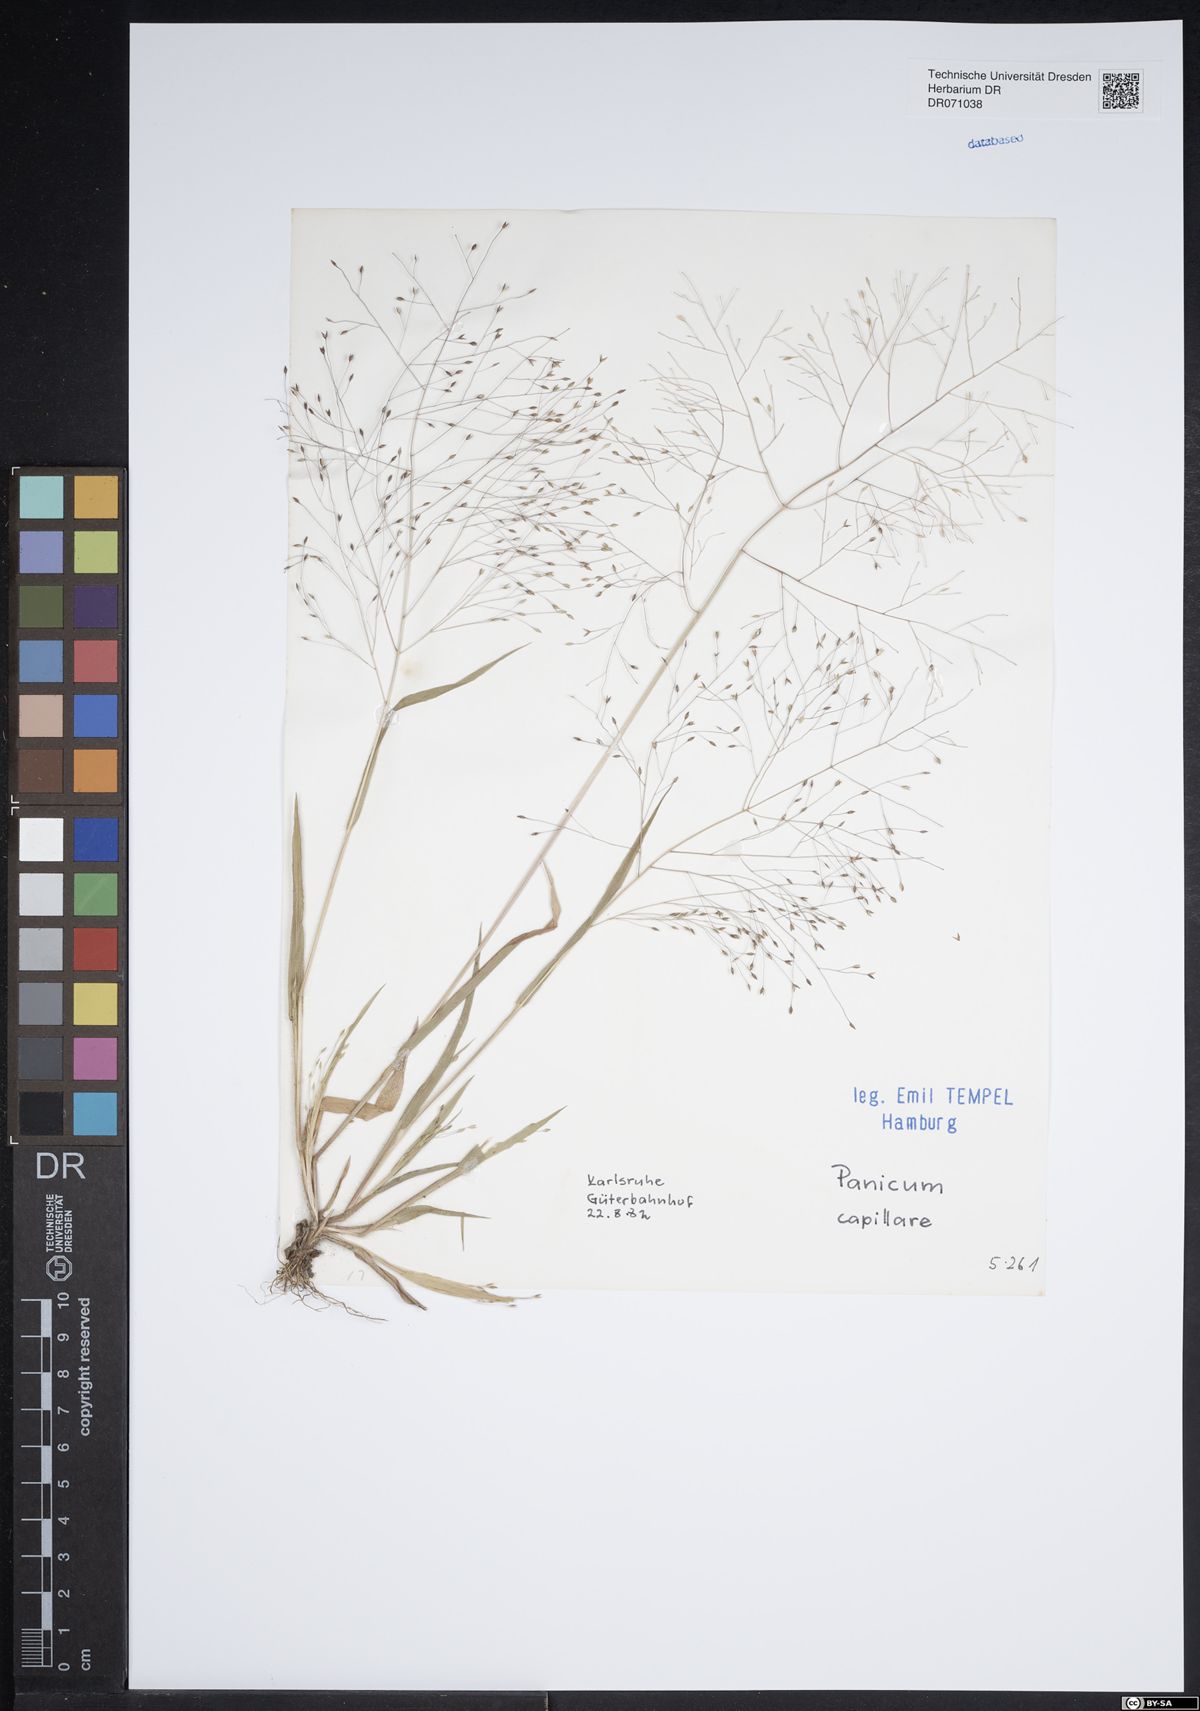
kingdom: Plantae
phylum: Tracheophyta
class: Liliopsida
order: Poales
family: Poaceae
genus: Panicum
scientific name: Panicum capillare
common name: Witch-grass
